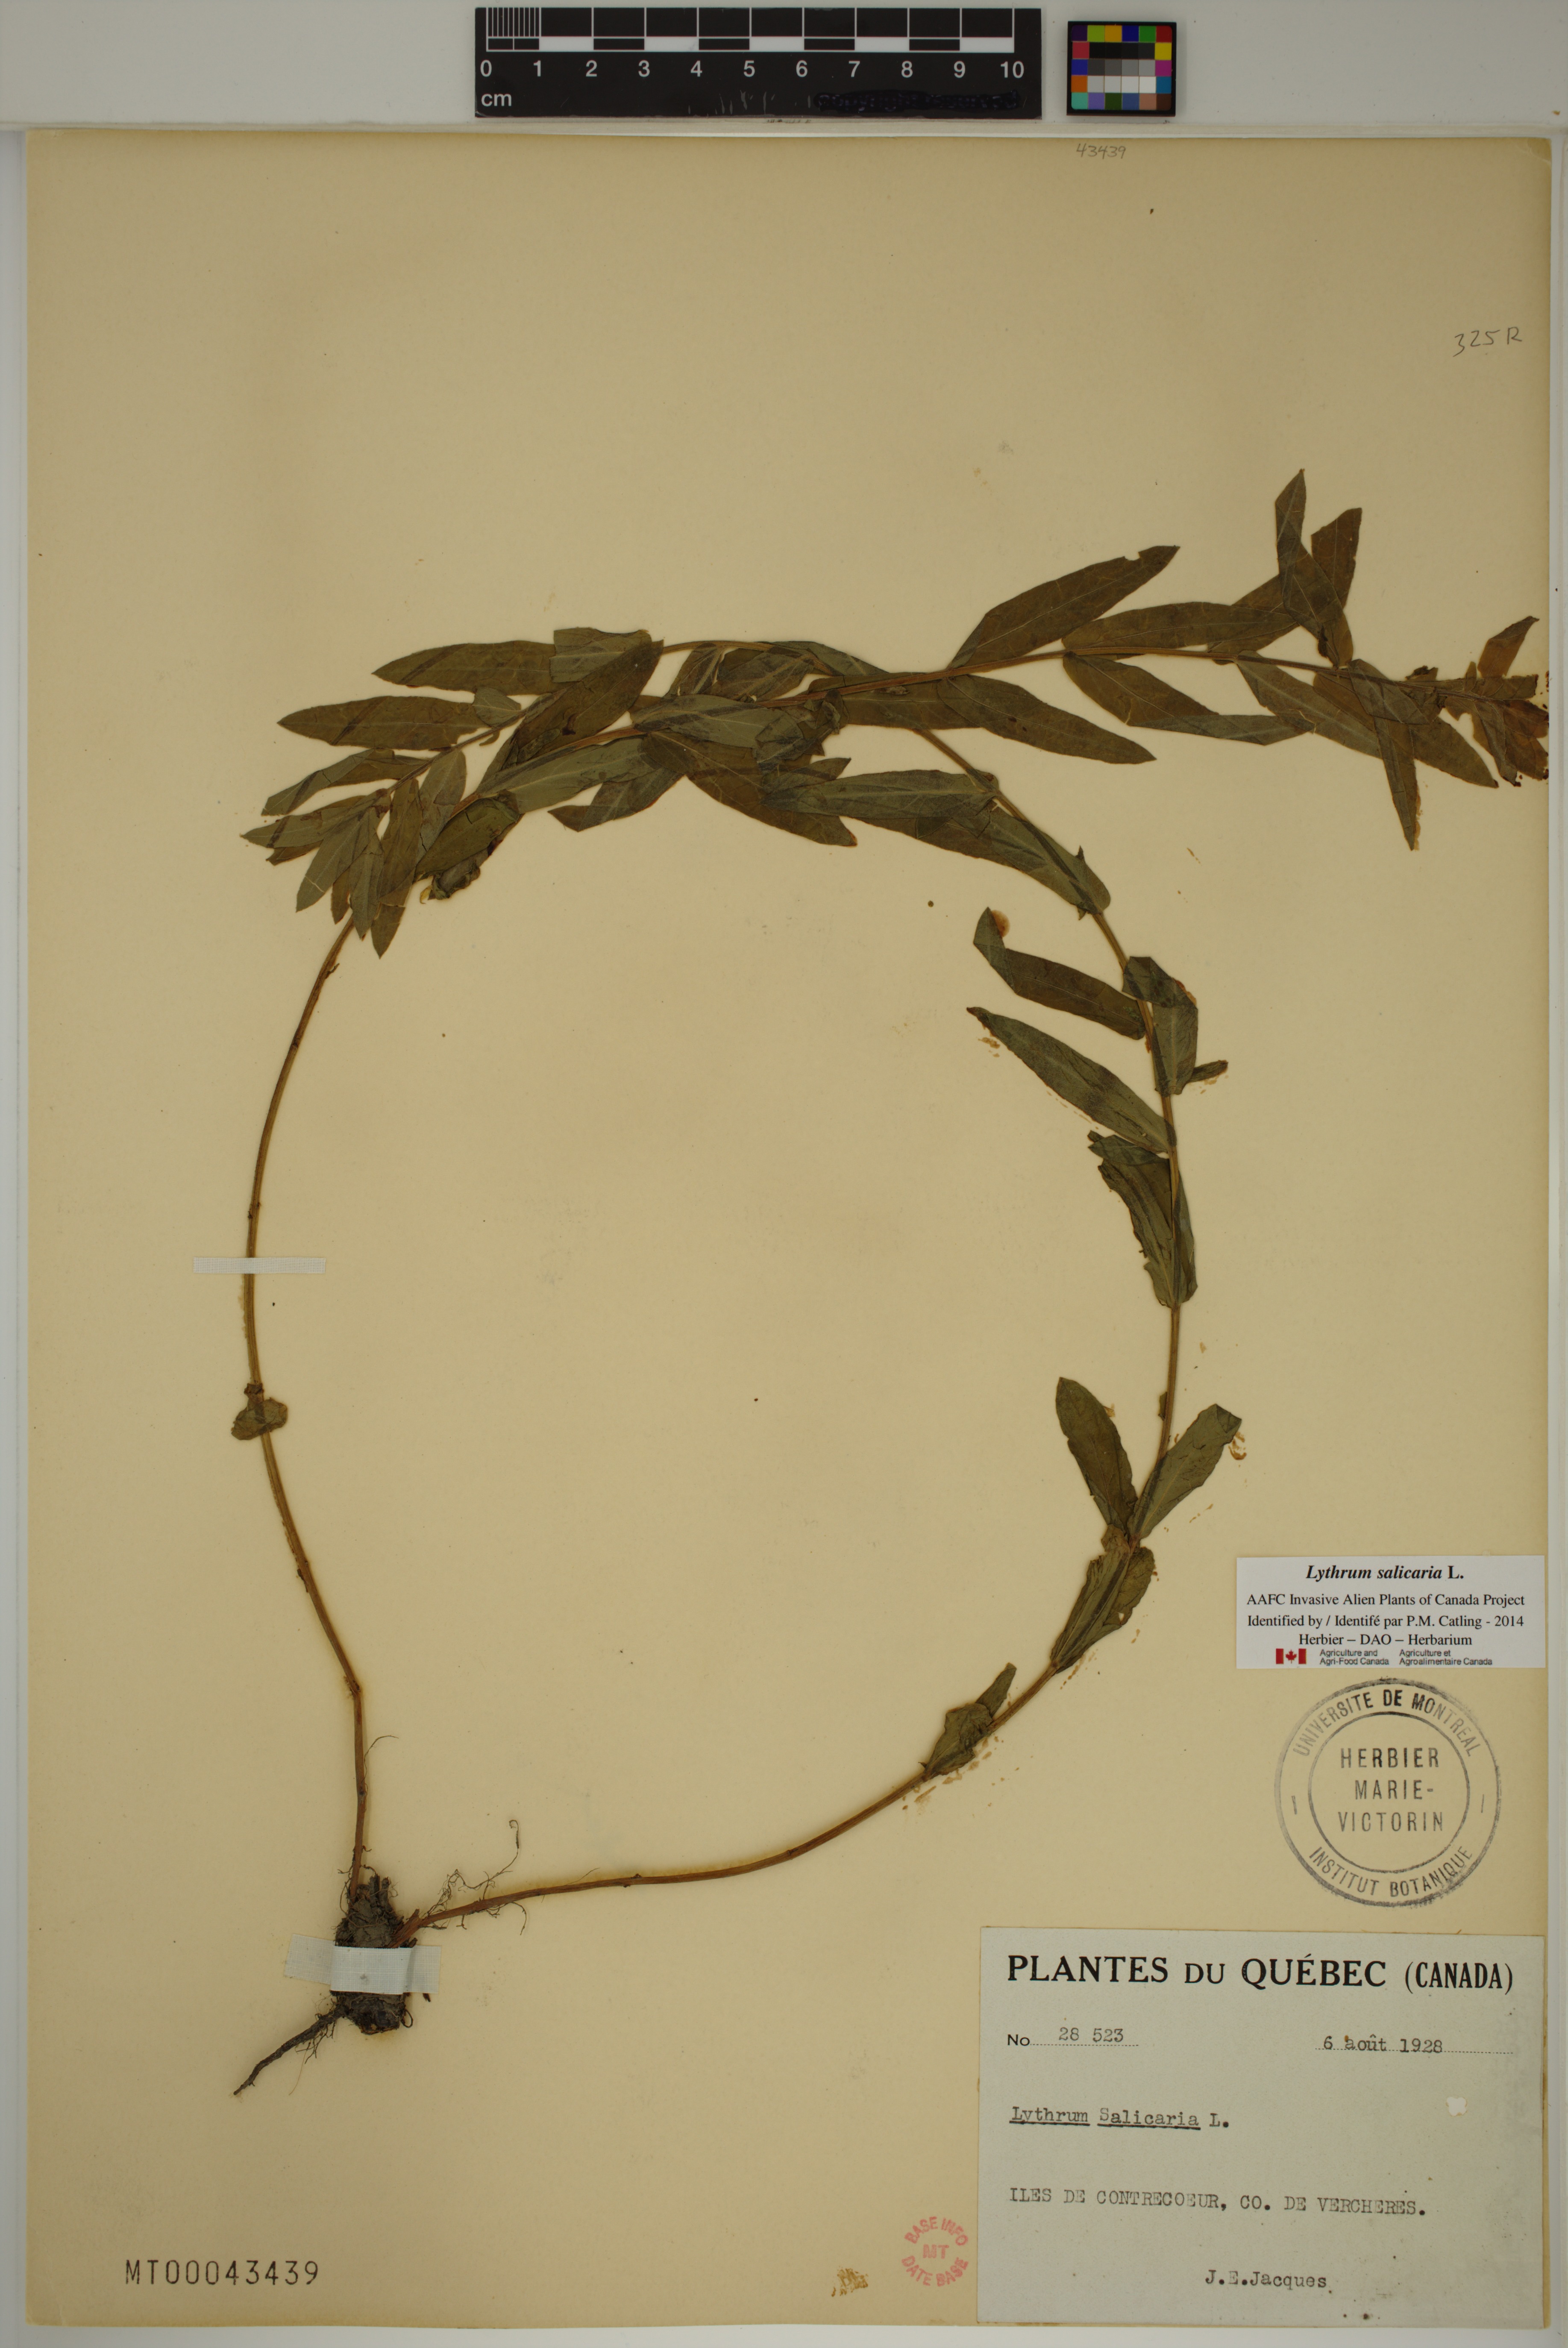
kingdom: Plantae
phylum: Tracheophyta
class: Magnoliopsida
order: Myrtales
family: Lythraceae
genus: Lythrum
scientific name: Lythrum salicaria
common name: Purple loosestrife
